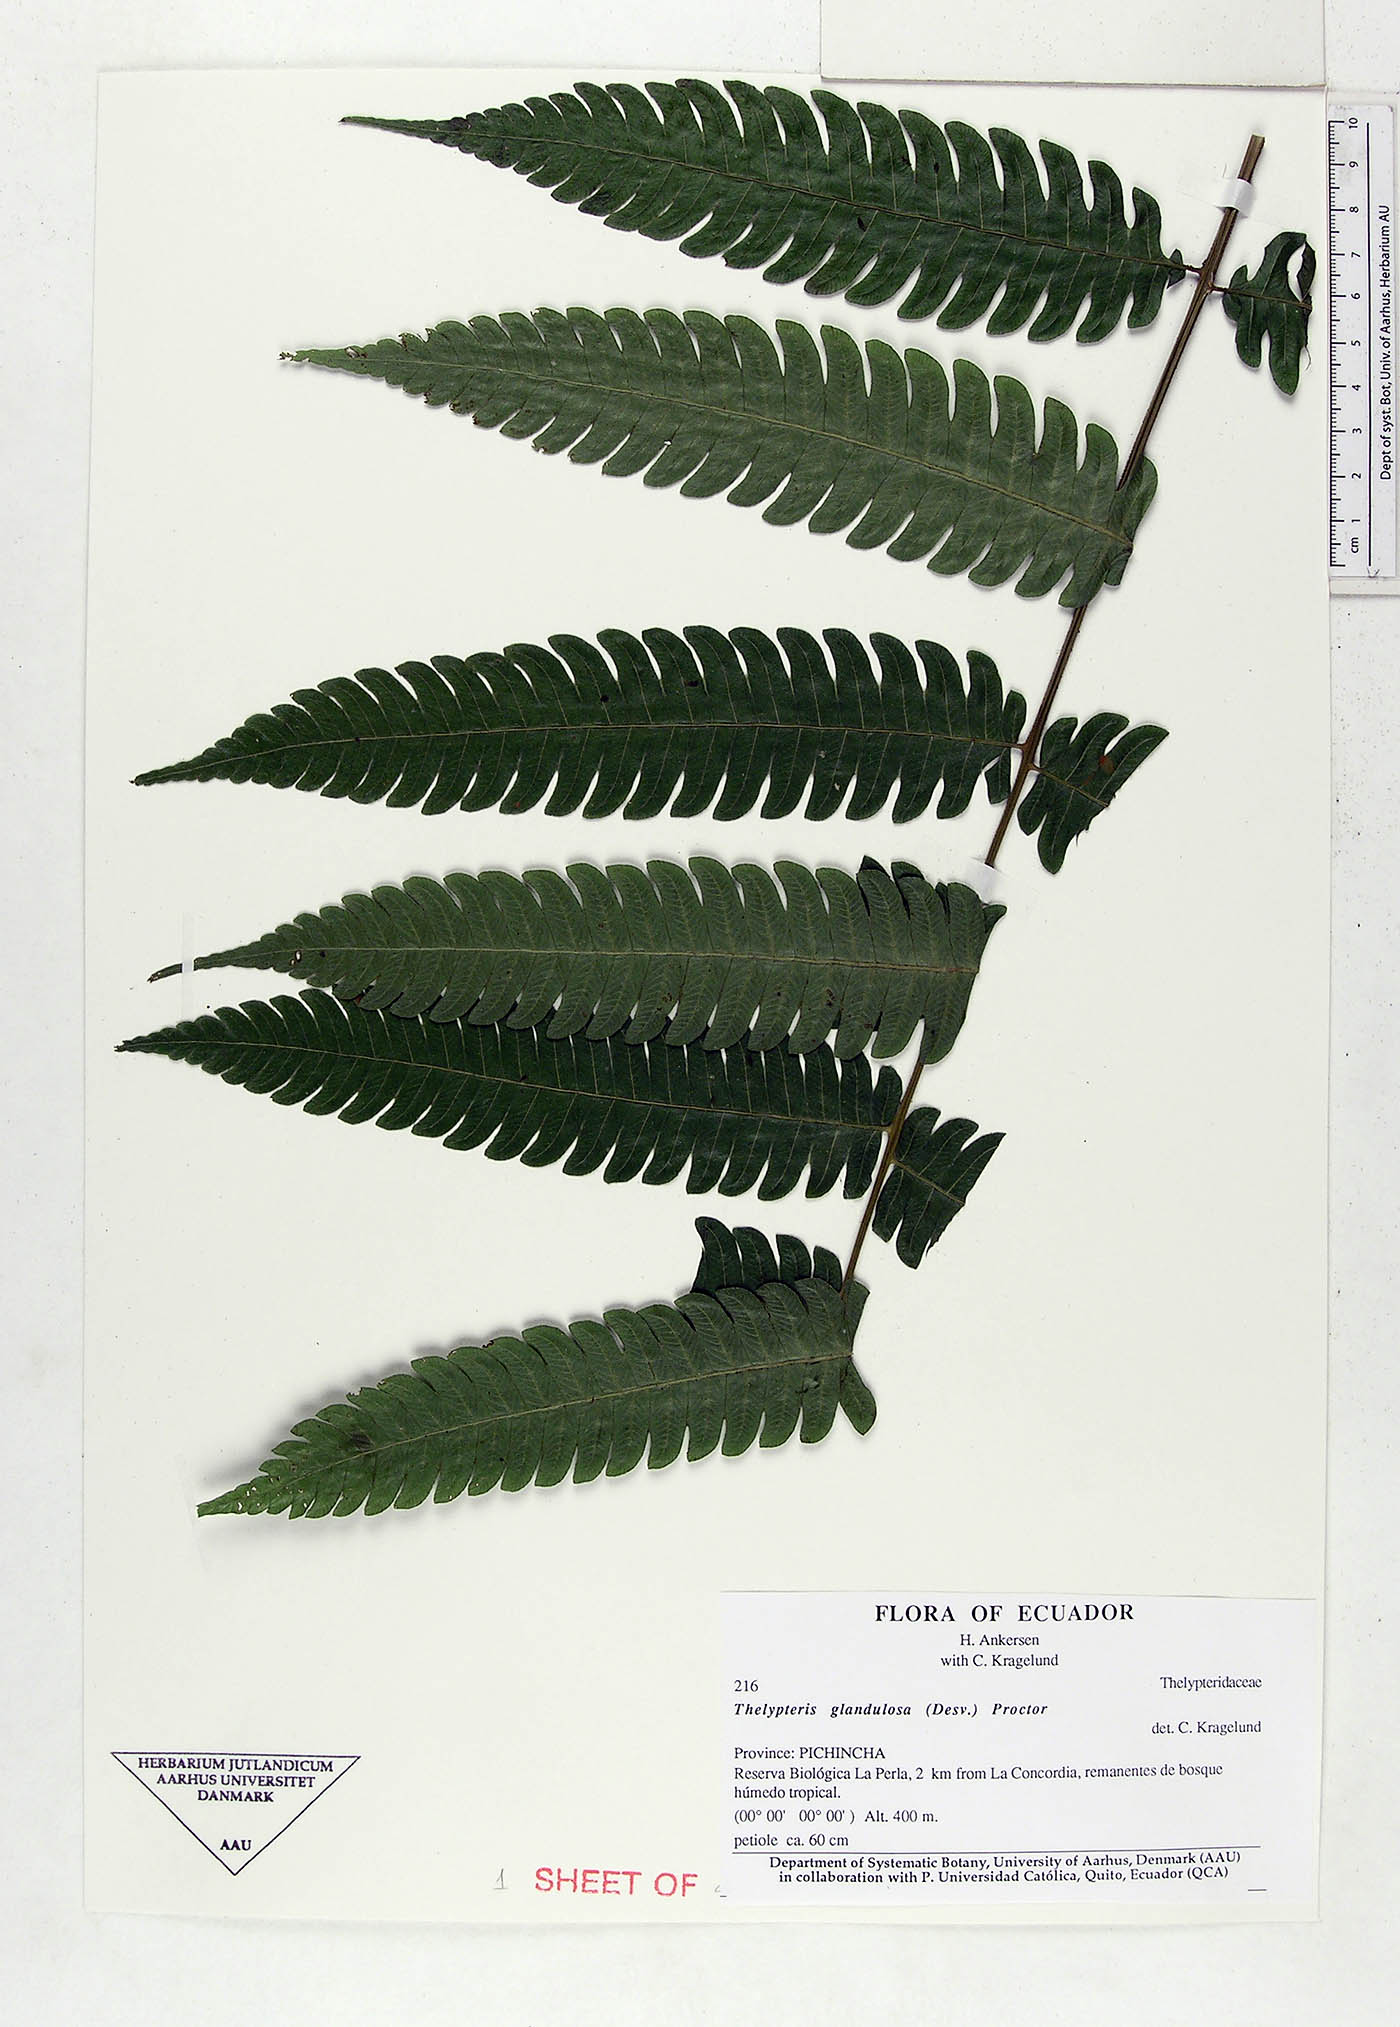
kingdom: Plantae
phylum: Tracheophyta
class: Polypodiopsida
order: Polypodiales
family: Thelypteridaceae
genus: Steiropteris
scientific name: Steiropteris glandulosa
